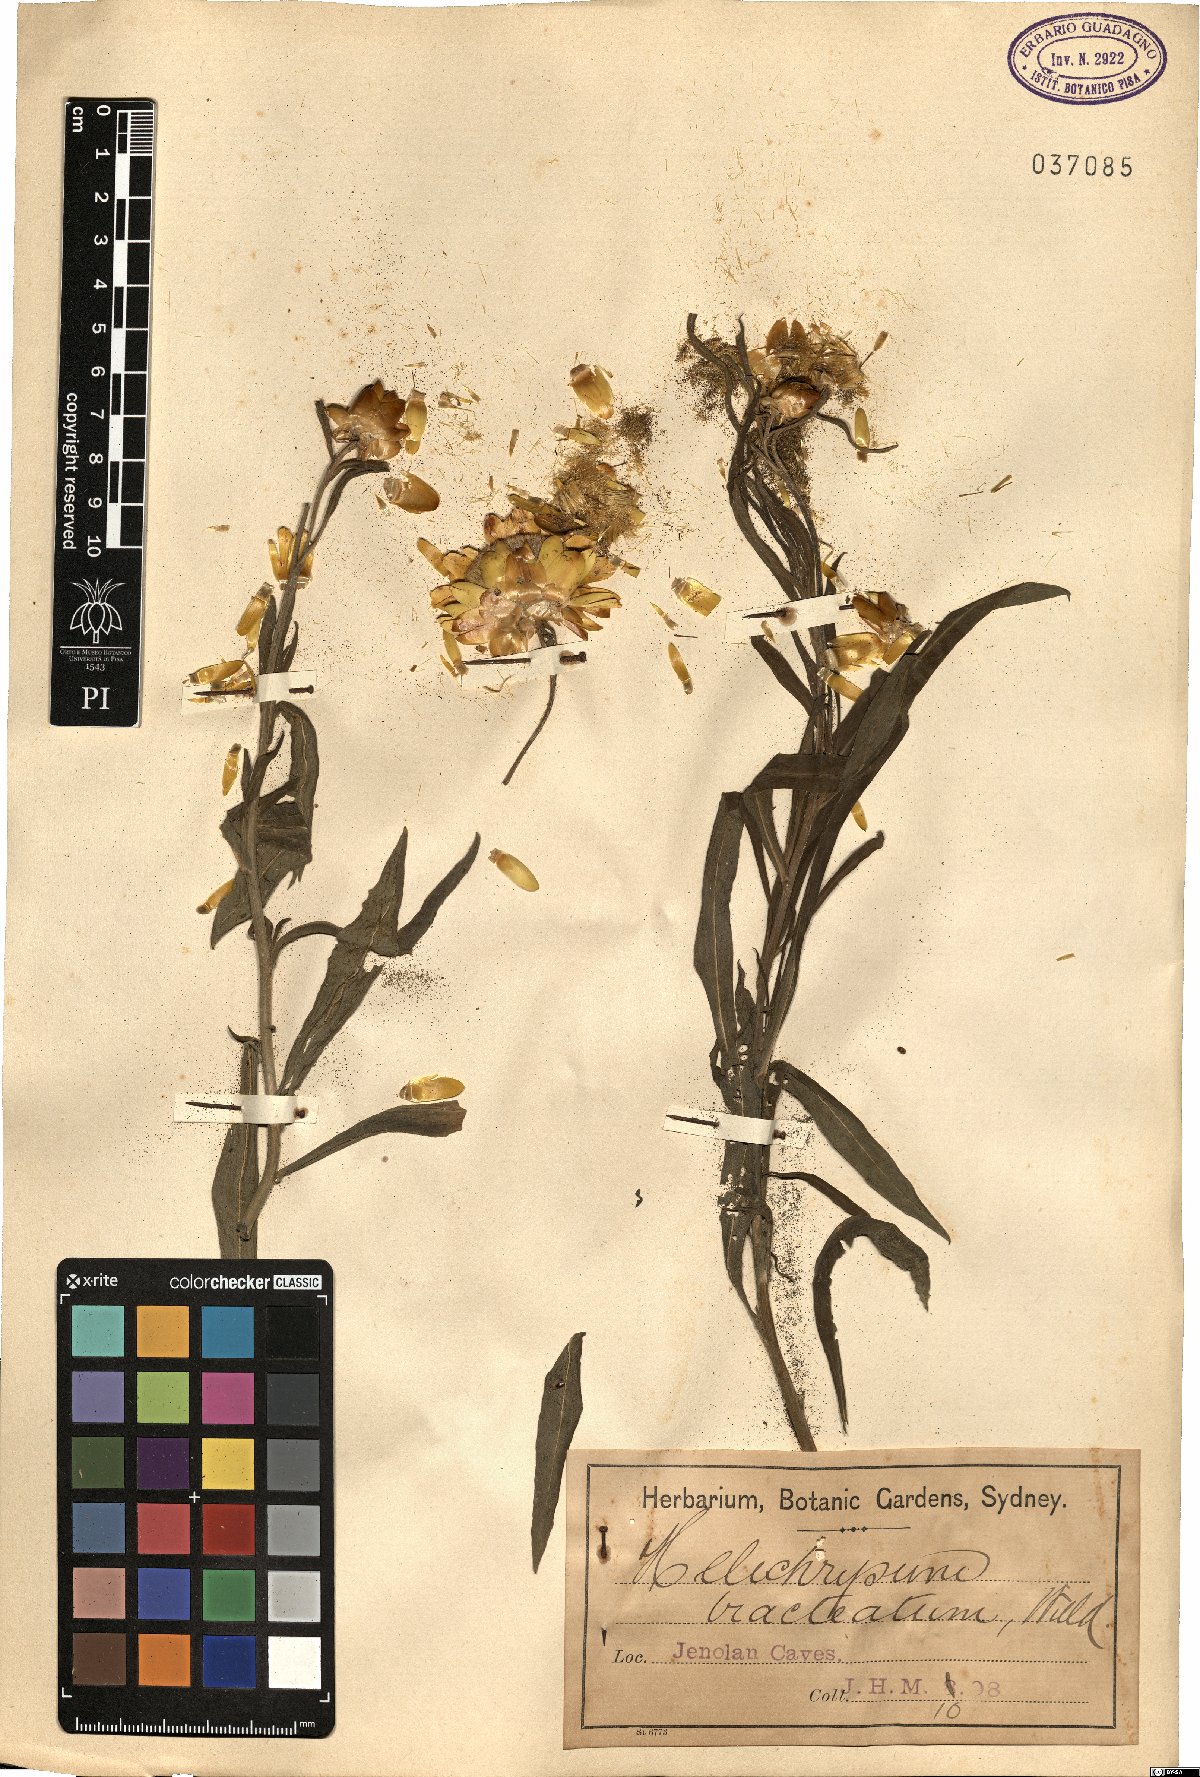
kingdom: Plantae
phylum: Tracheophyta
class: Magnoliopsida
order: Asterales
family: Asteraceae
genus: Xerochrysum
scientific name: Xerochrysum bracteatum
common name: Bracted strawflower
